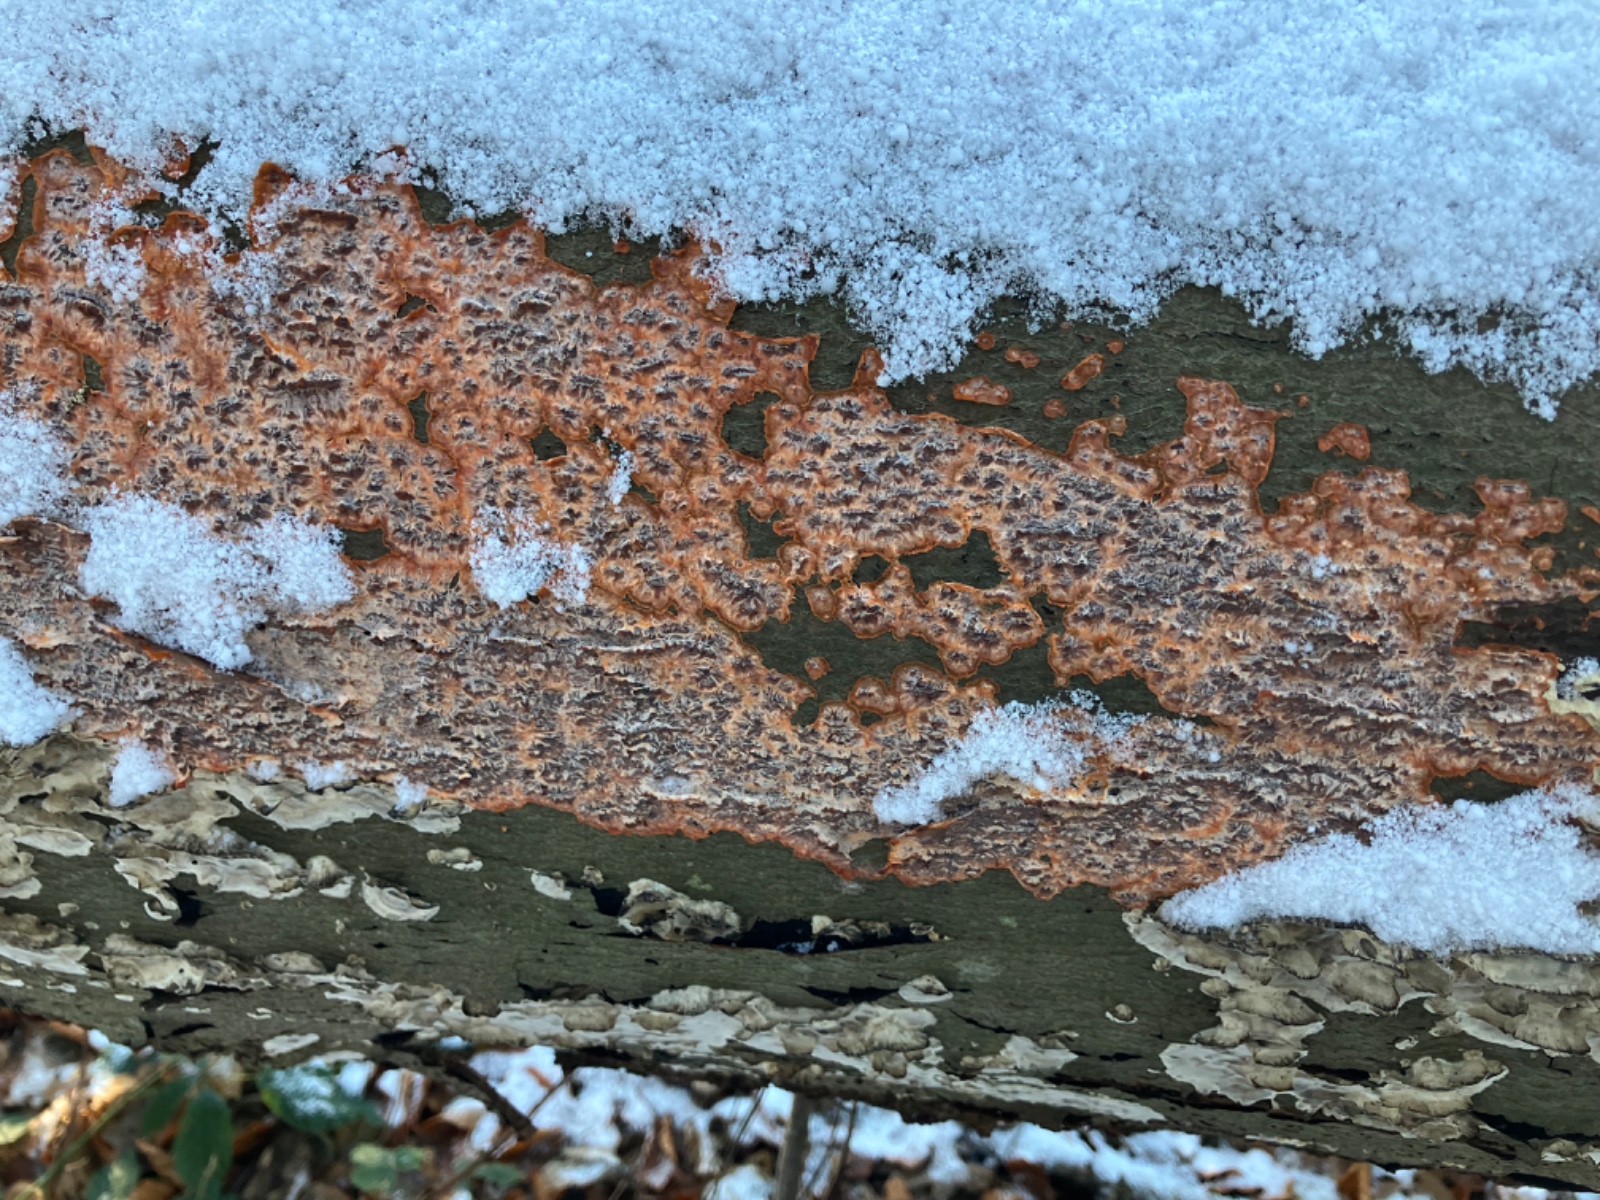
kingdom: Fungi
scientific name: Fungi
